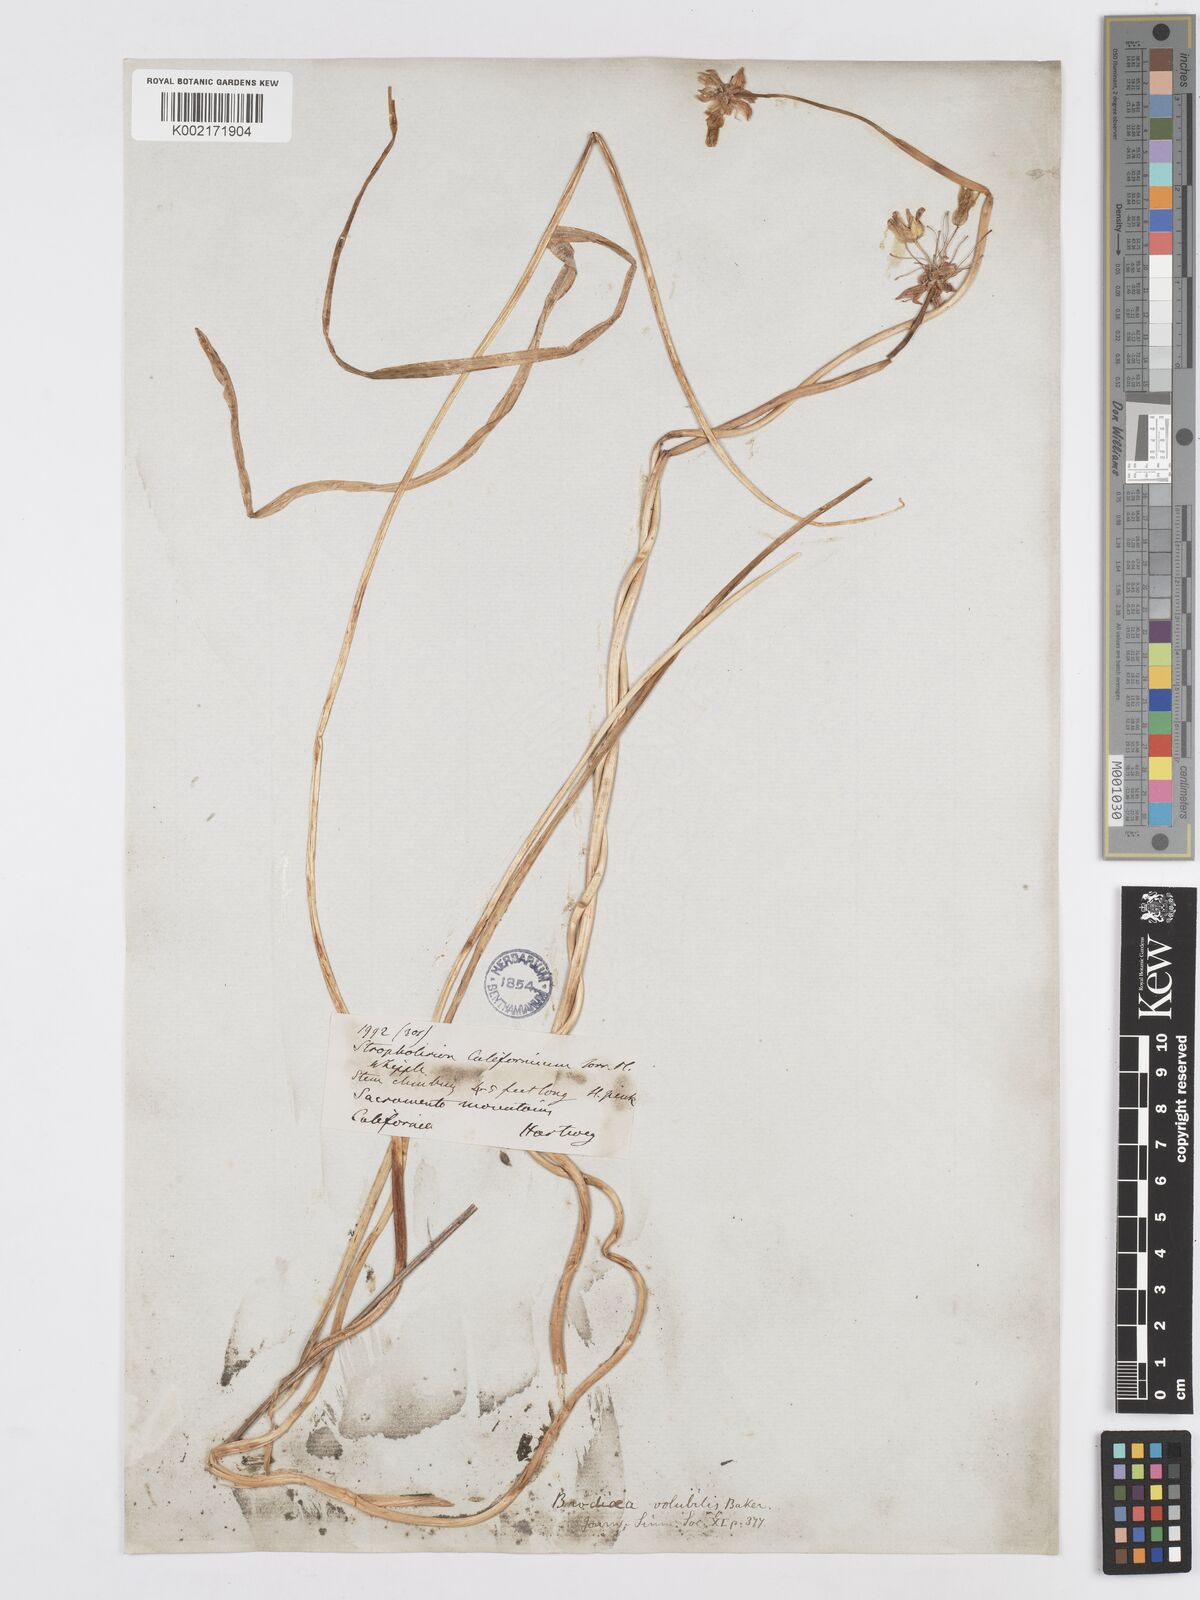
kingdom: Plantae
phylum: Tracheophyta
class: Liliopsida
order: Asparagales
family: Asparagaceae
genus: Dichelostemma
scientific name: Dichelostemma volubile
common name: Trining brodiaea
